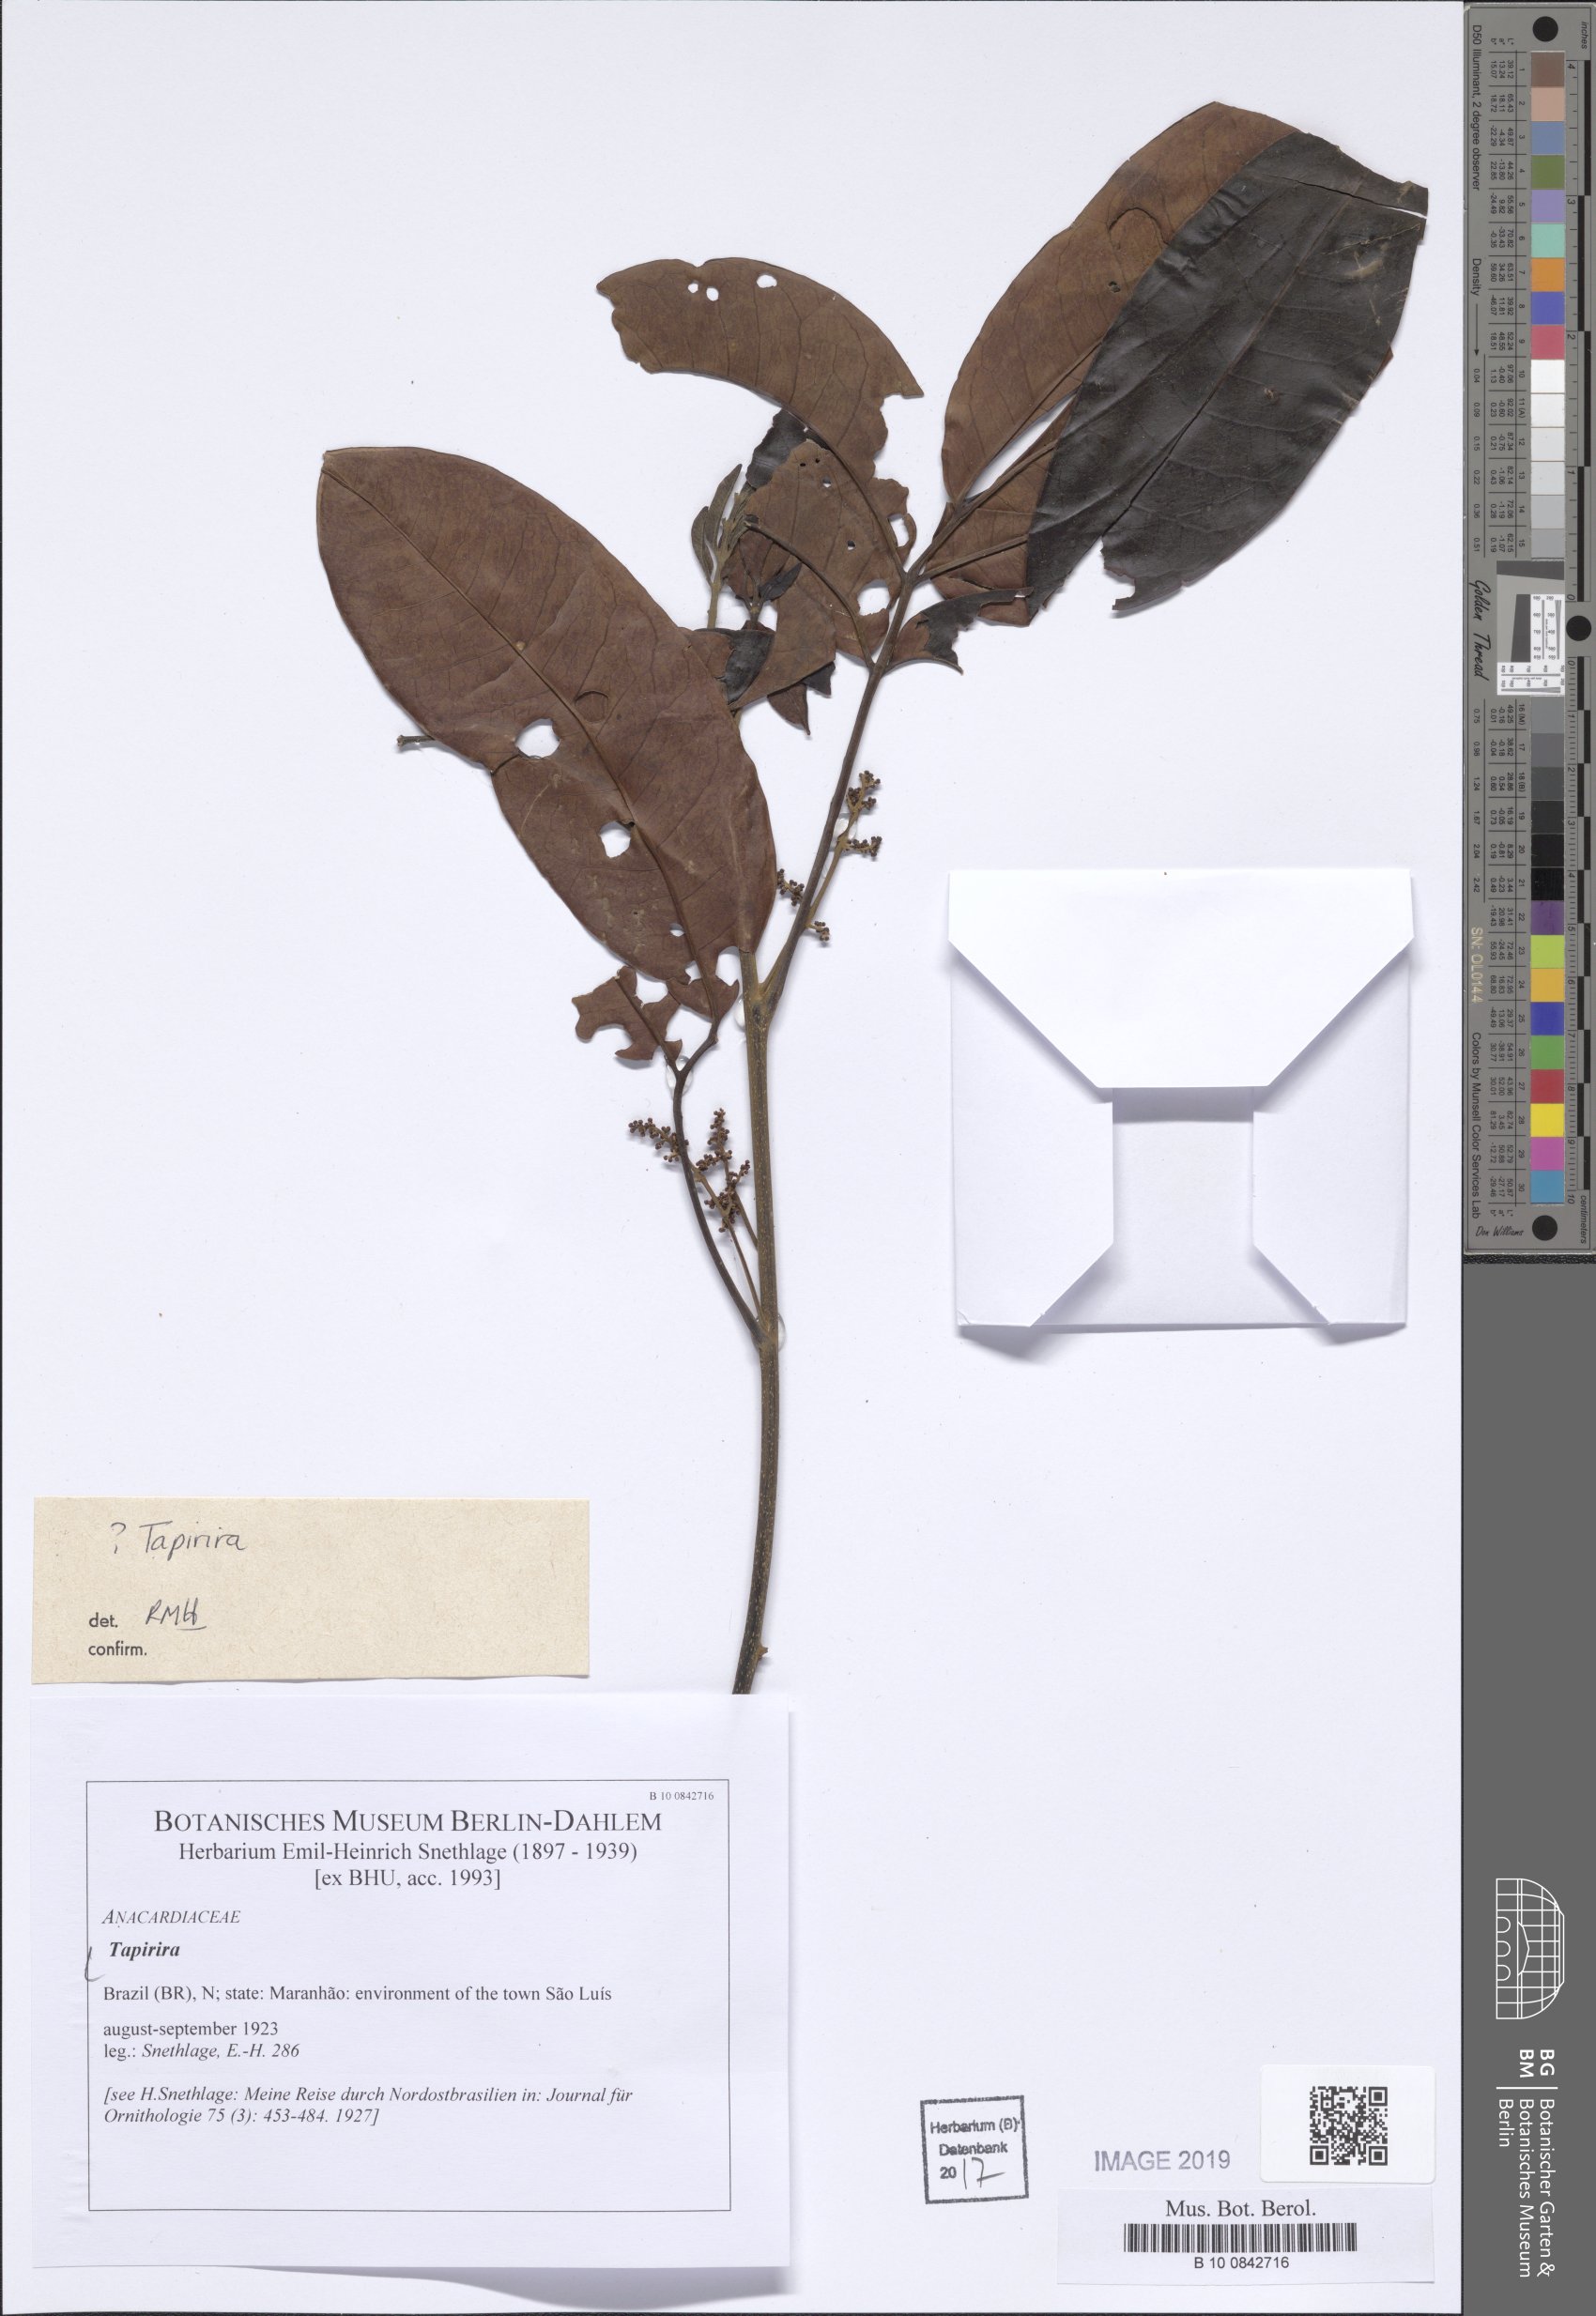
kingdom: Plantae
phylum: Tracheophyta
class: Magnoliopsida
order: Sapindales
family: Anacardiaceae
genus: Tapirira
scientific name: Tapirira
